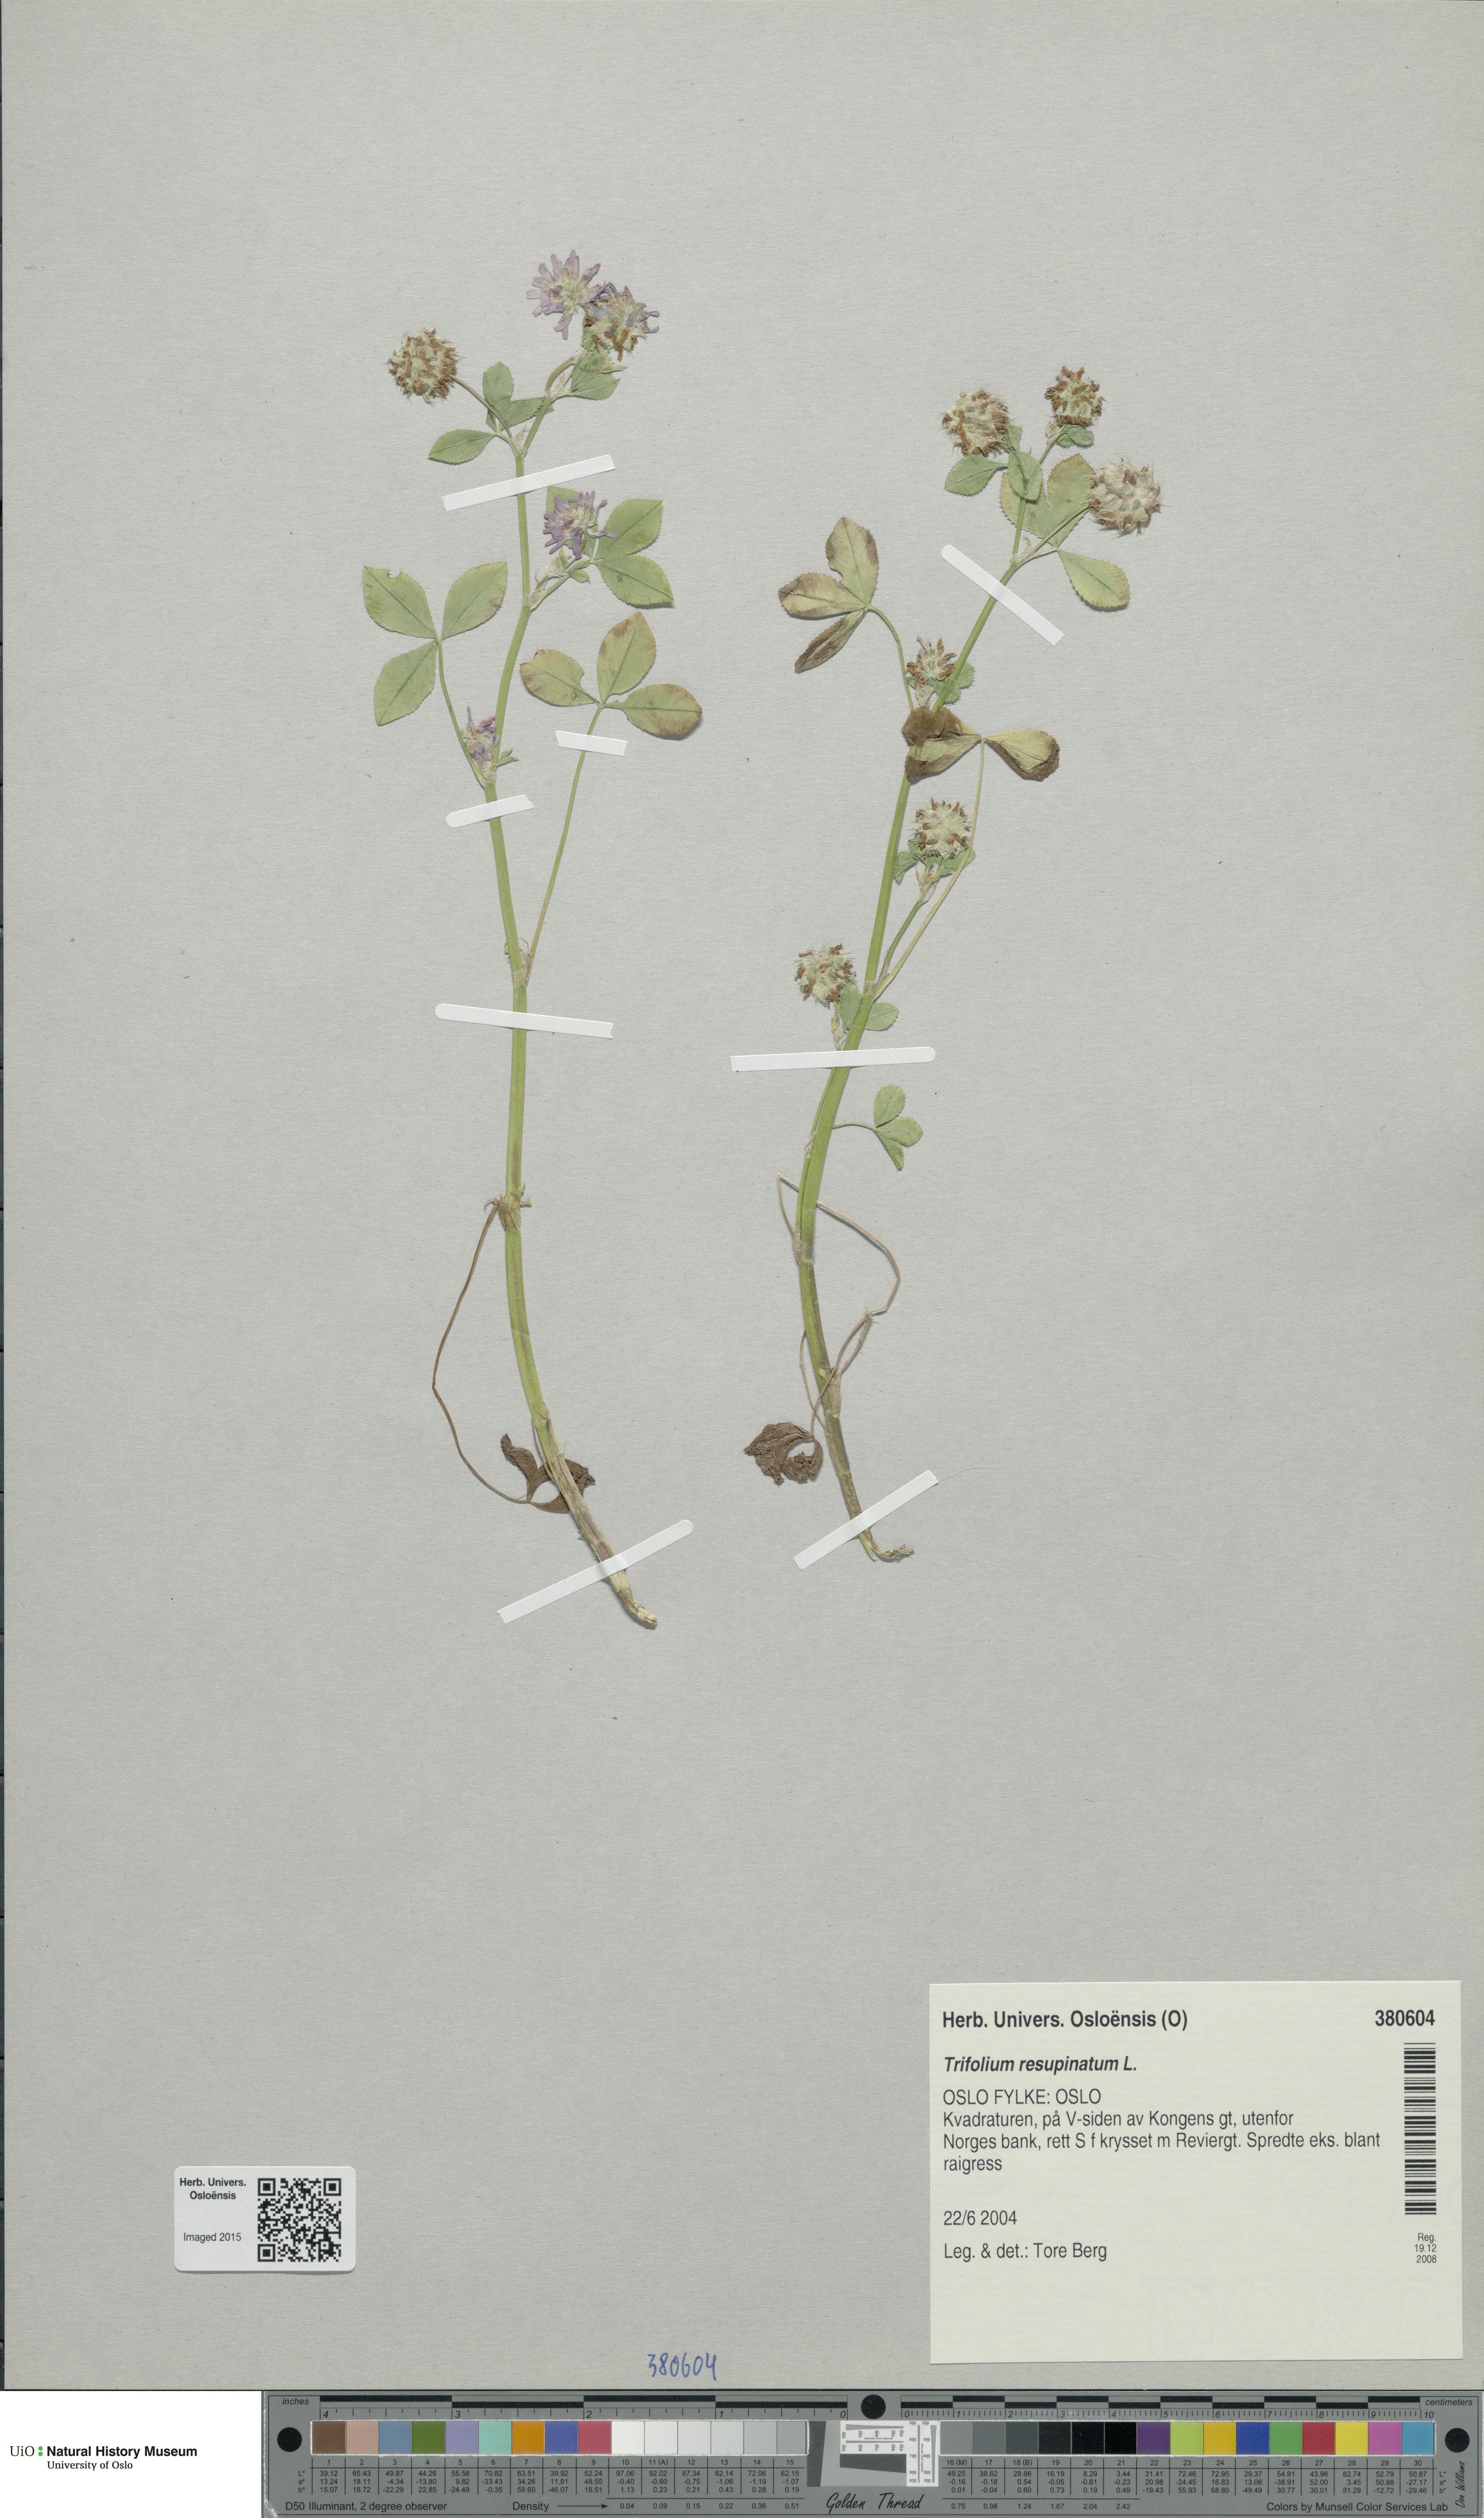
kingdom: Plantae
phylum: Tracheophyta
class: Magnoliopsida
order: Fabales
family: Fabaceae
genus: Trifolium
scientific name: Trifolium resupinatum
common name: Reversed clover
